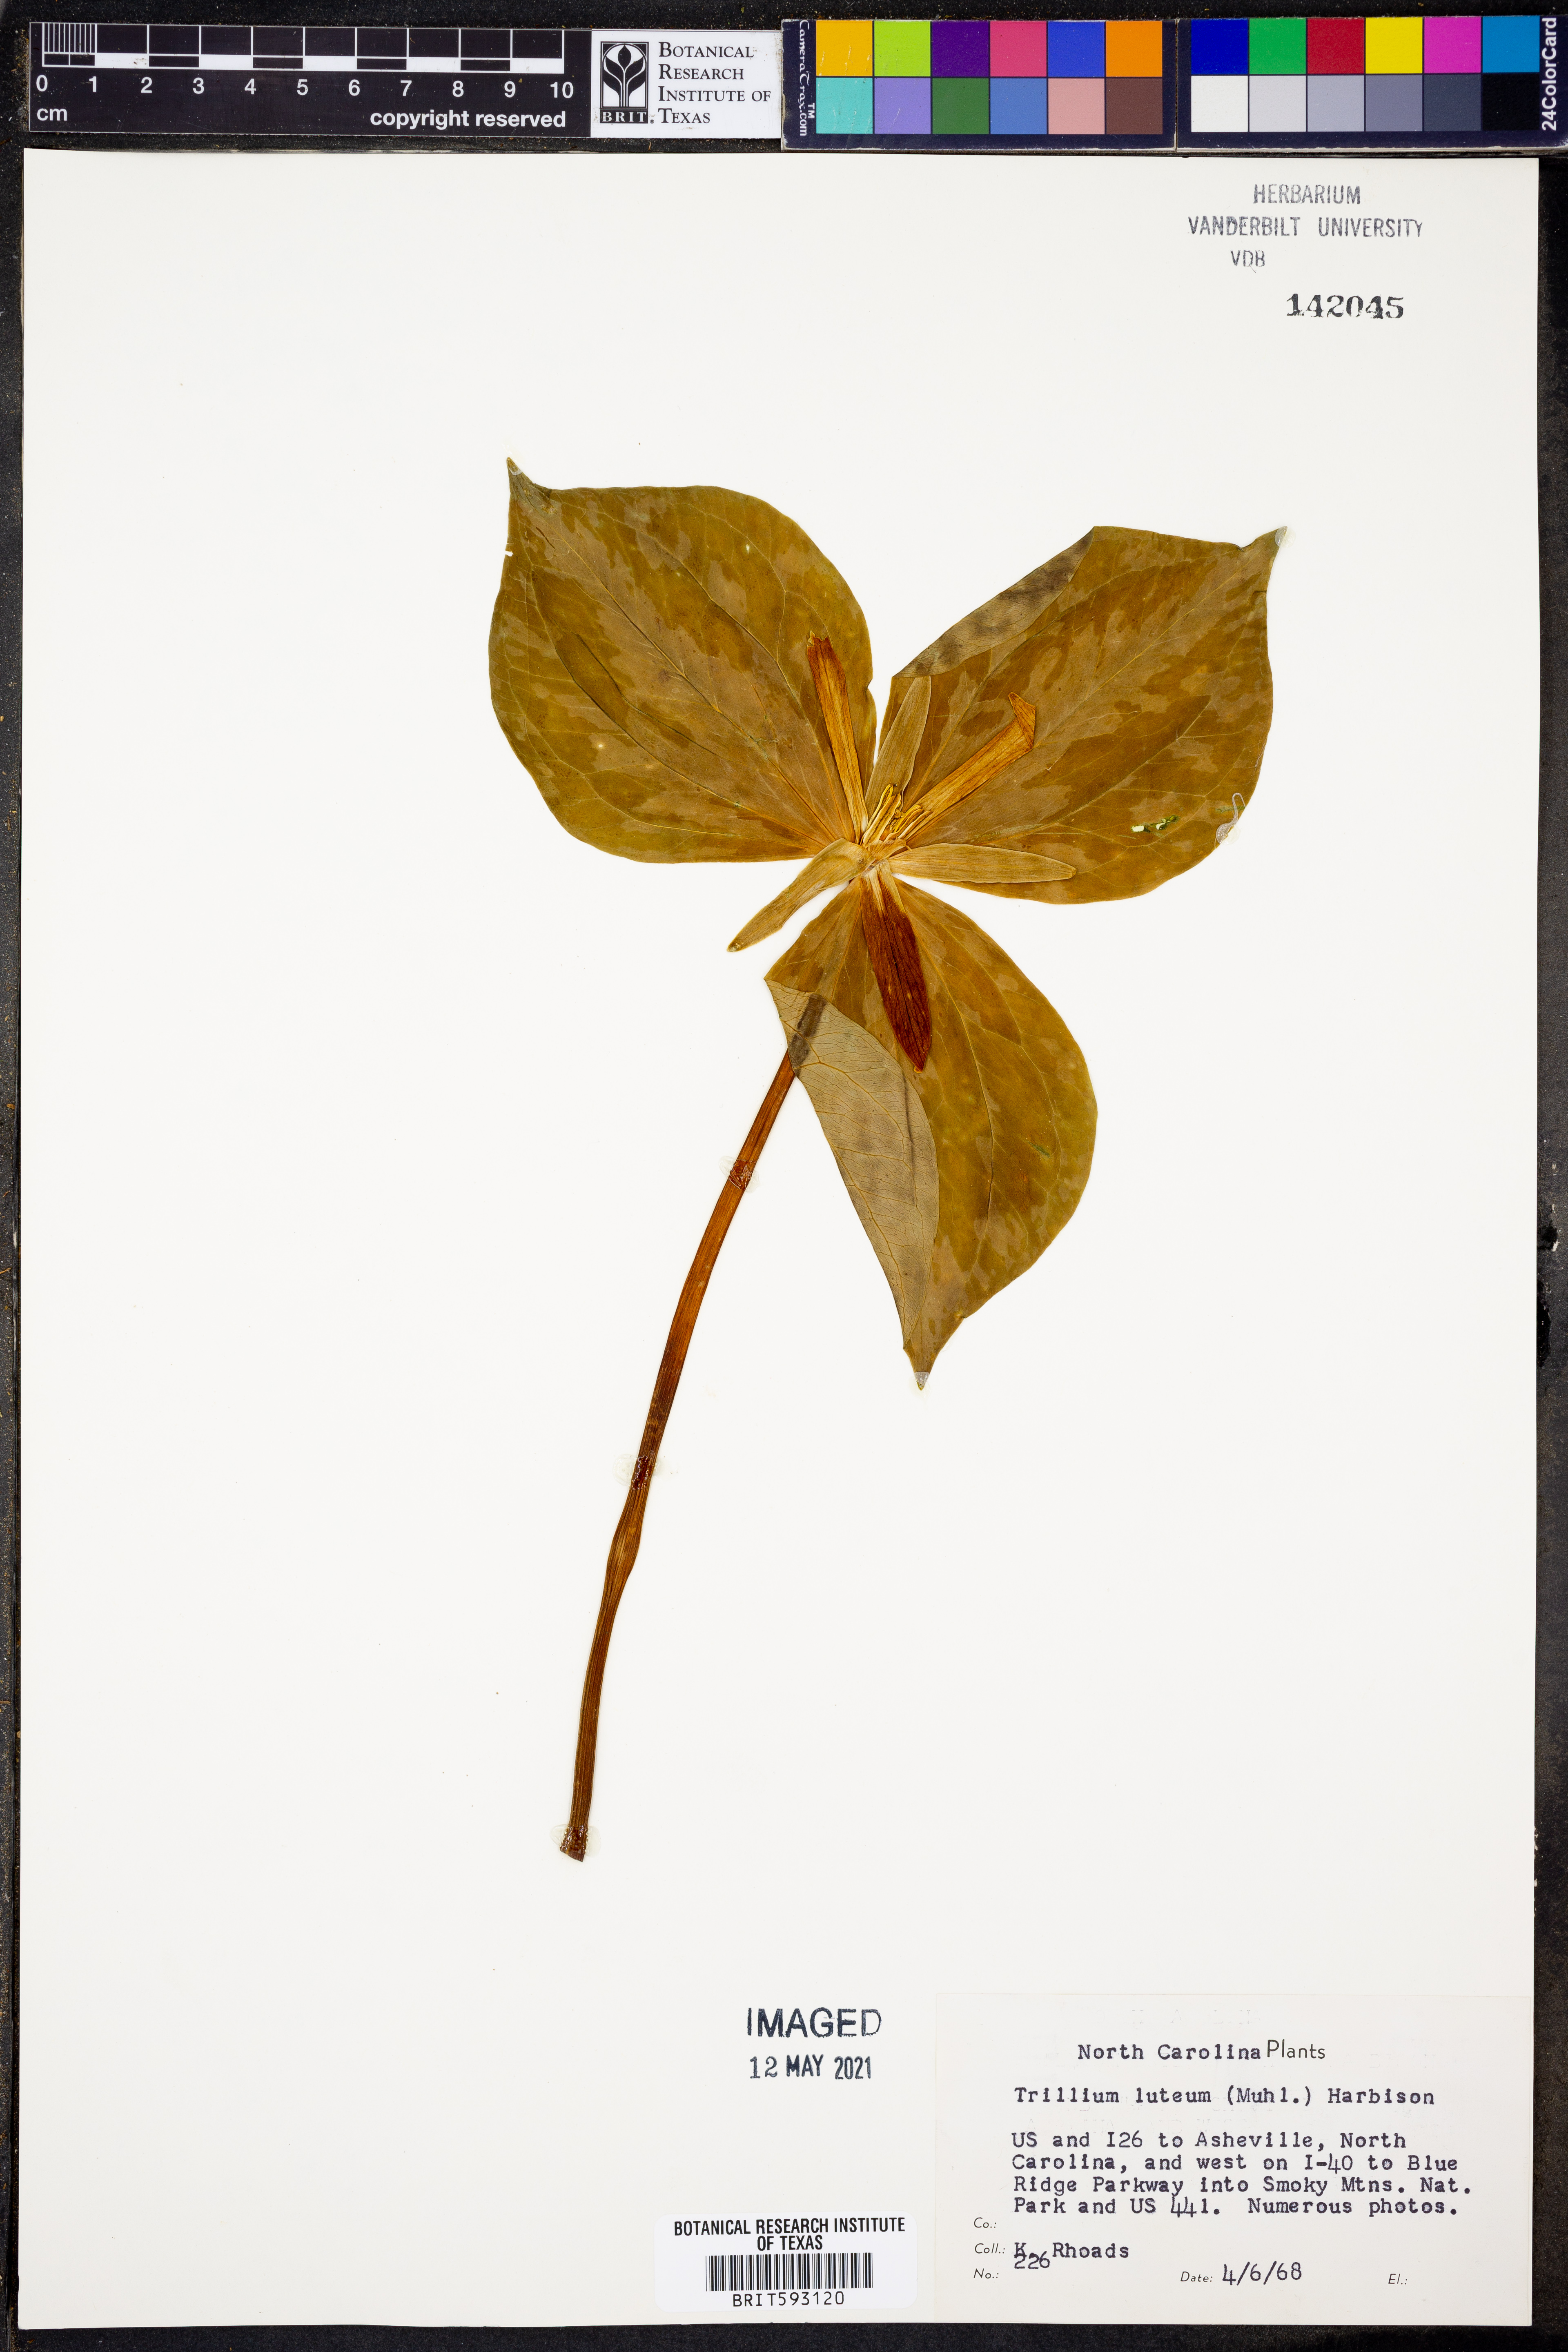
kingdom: Plantae
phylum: Tracheophyta
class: Liliopsida
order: Liliales
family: Melanthiaceae
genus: Trillium
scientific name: Trillium luteum
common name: Wax trillium
